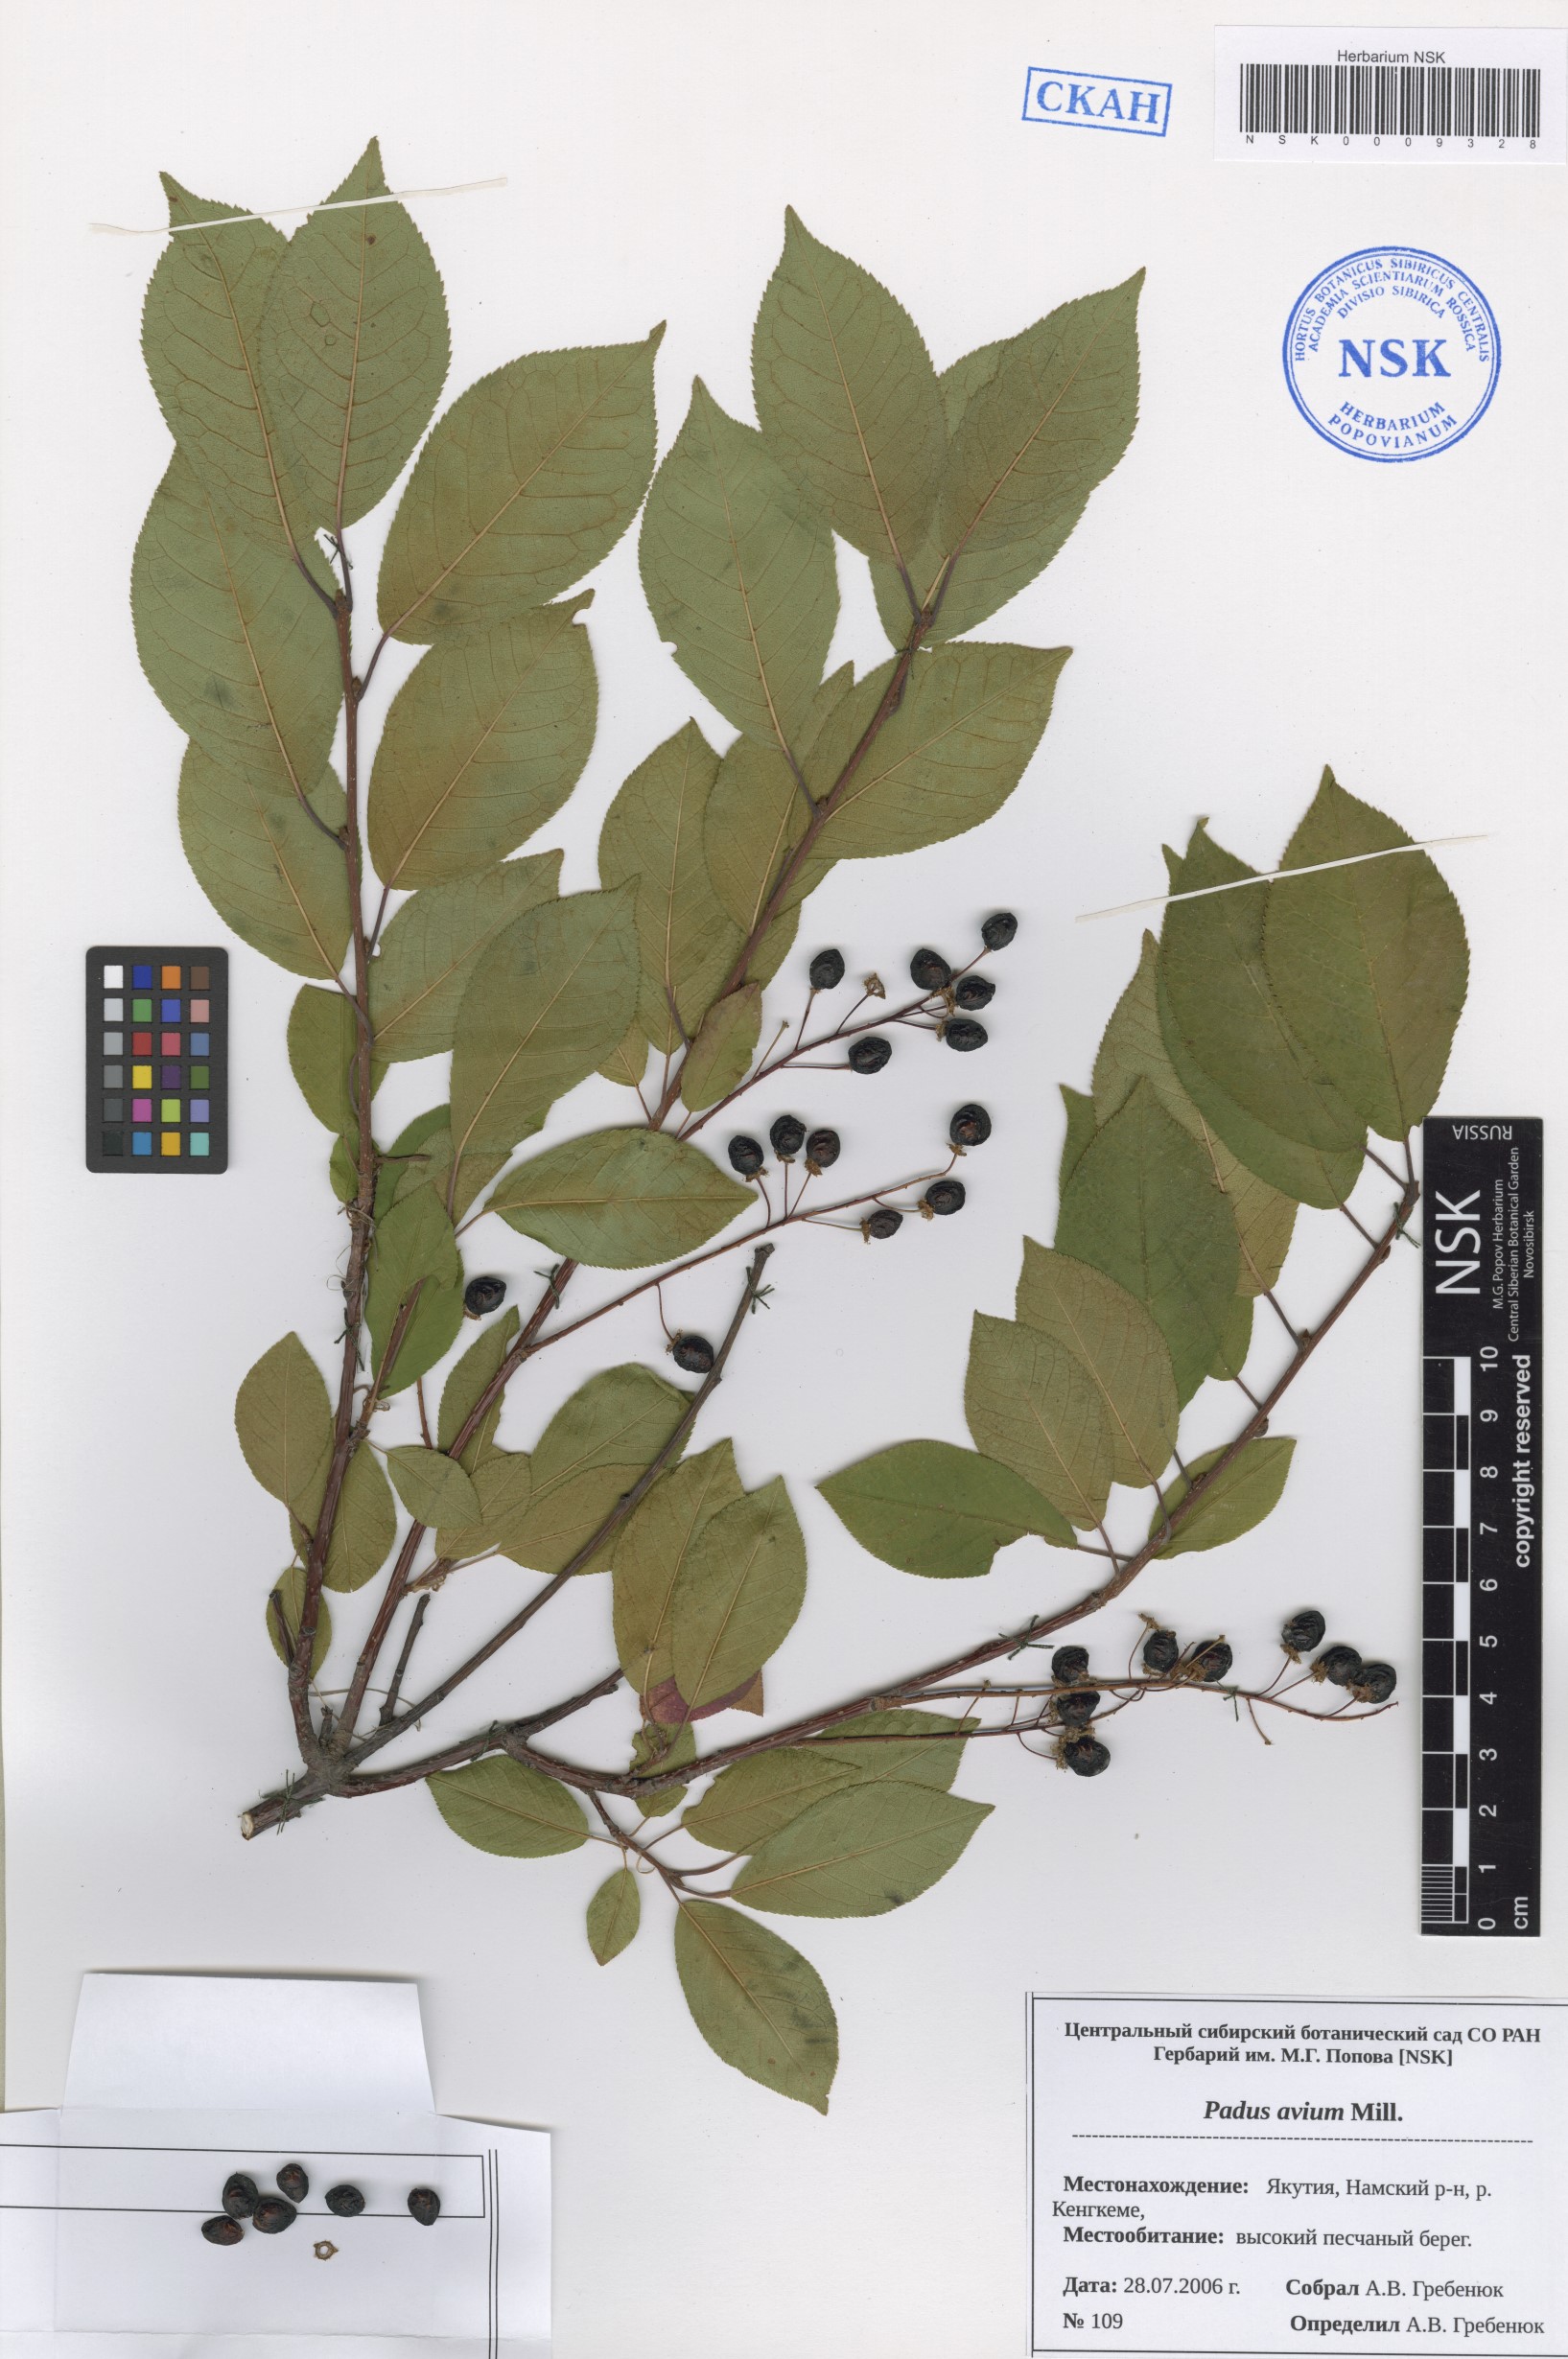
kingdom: Plantae
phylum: Tracheophyta
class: Magnoliopsida
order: Rosales
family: Rosaceae
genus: Prunus
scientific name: Prunus padus
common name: Bird cherry
